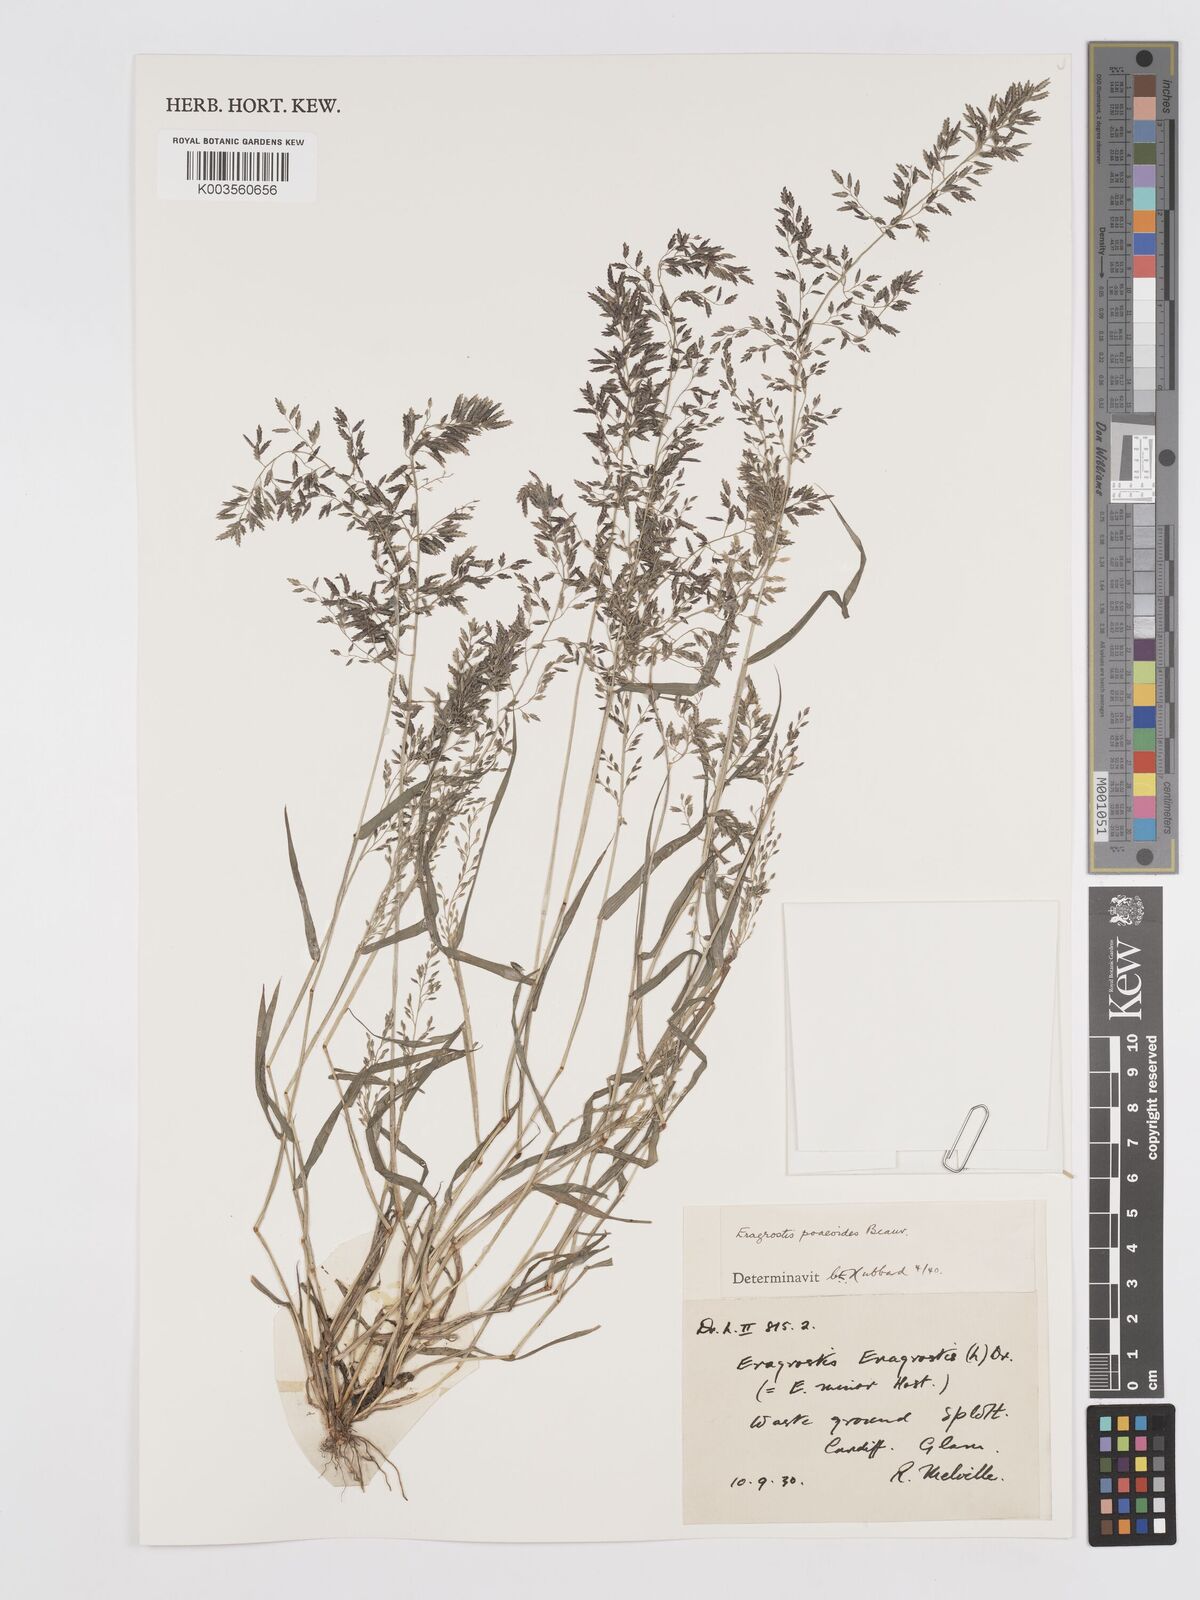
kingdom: Plantae
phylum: Tracheophyta
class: Liliopsida
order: Poales
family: Poaceae
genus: Eragrostis
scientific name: Eragrostis minor
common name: Small love-grass
